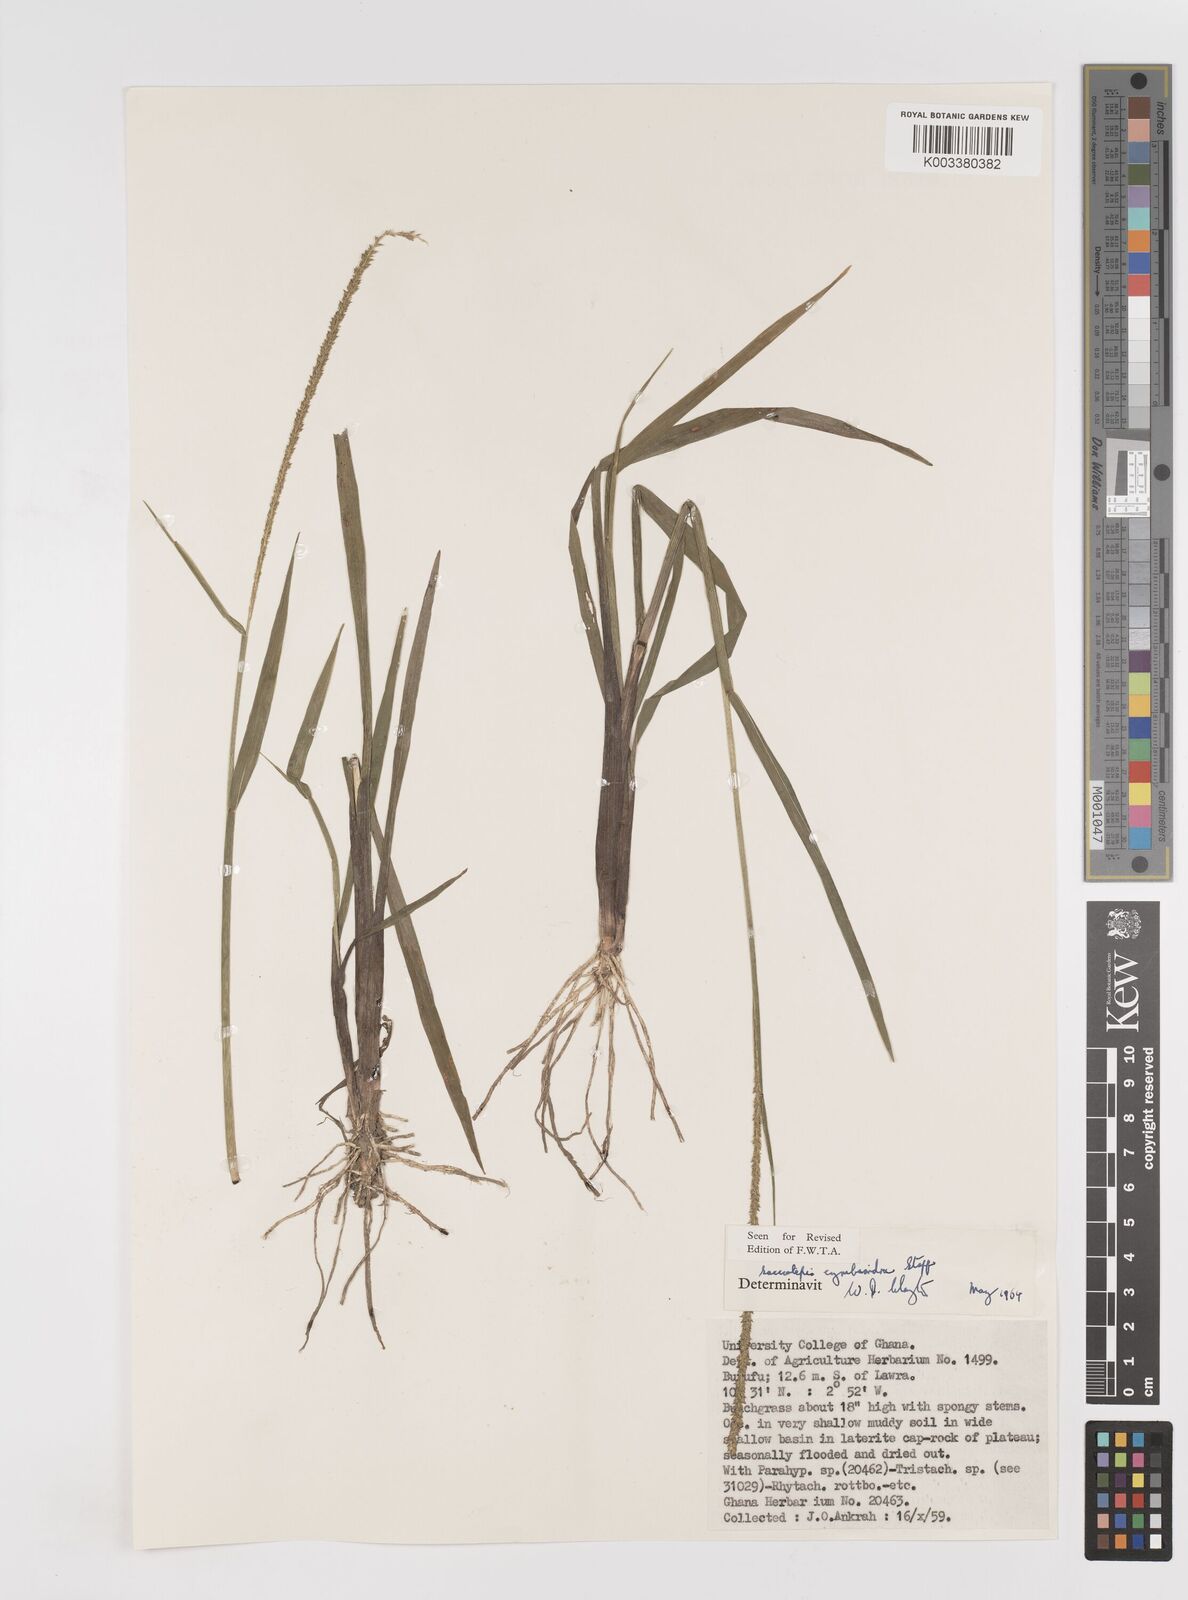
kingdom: Plantae
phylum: Tracheophyta
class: Liliopsida
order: Poales
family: Poaceae
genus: Sacciolepis
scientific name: Sacciolepis cymbiandra
